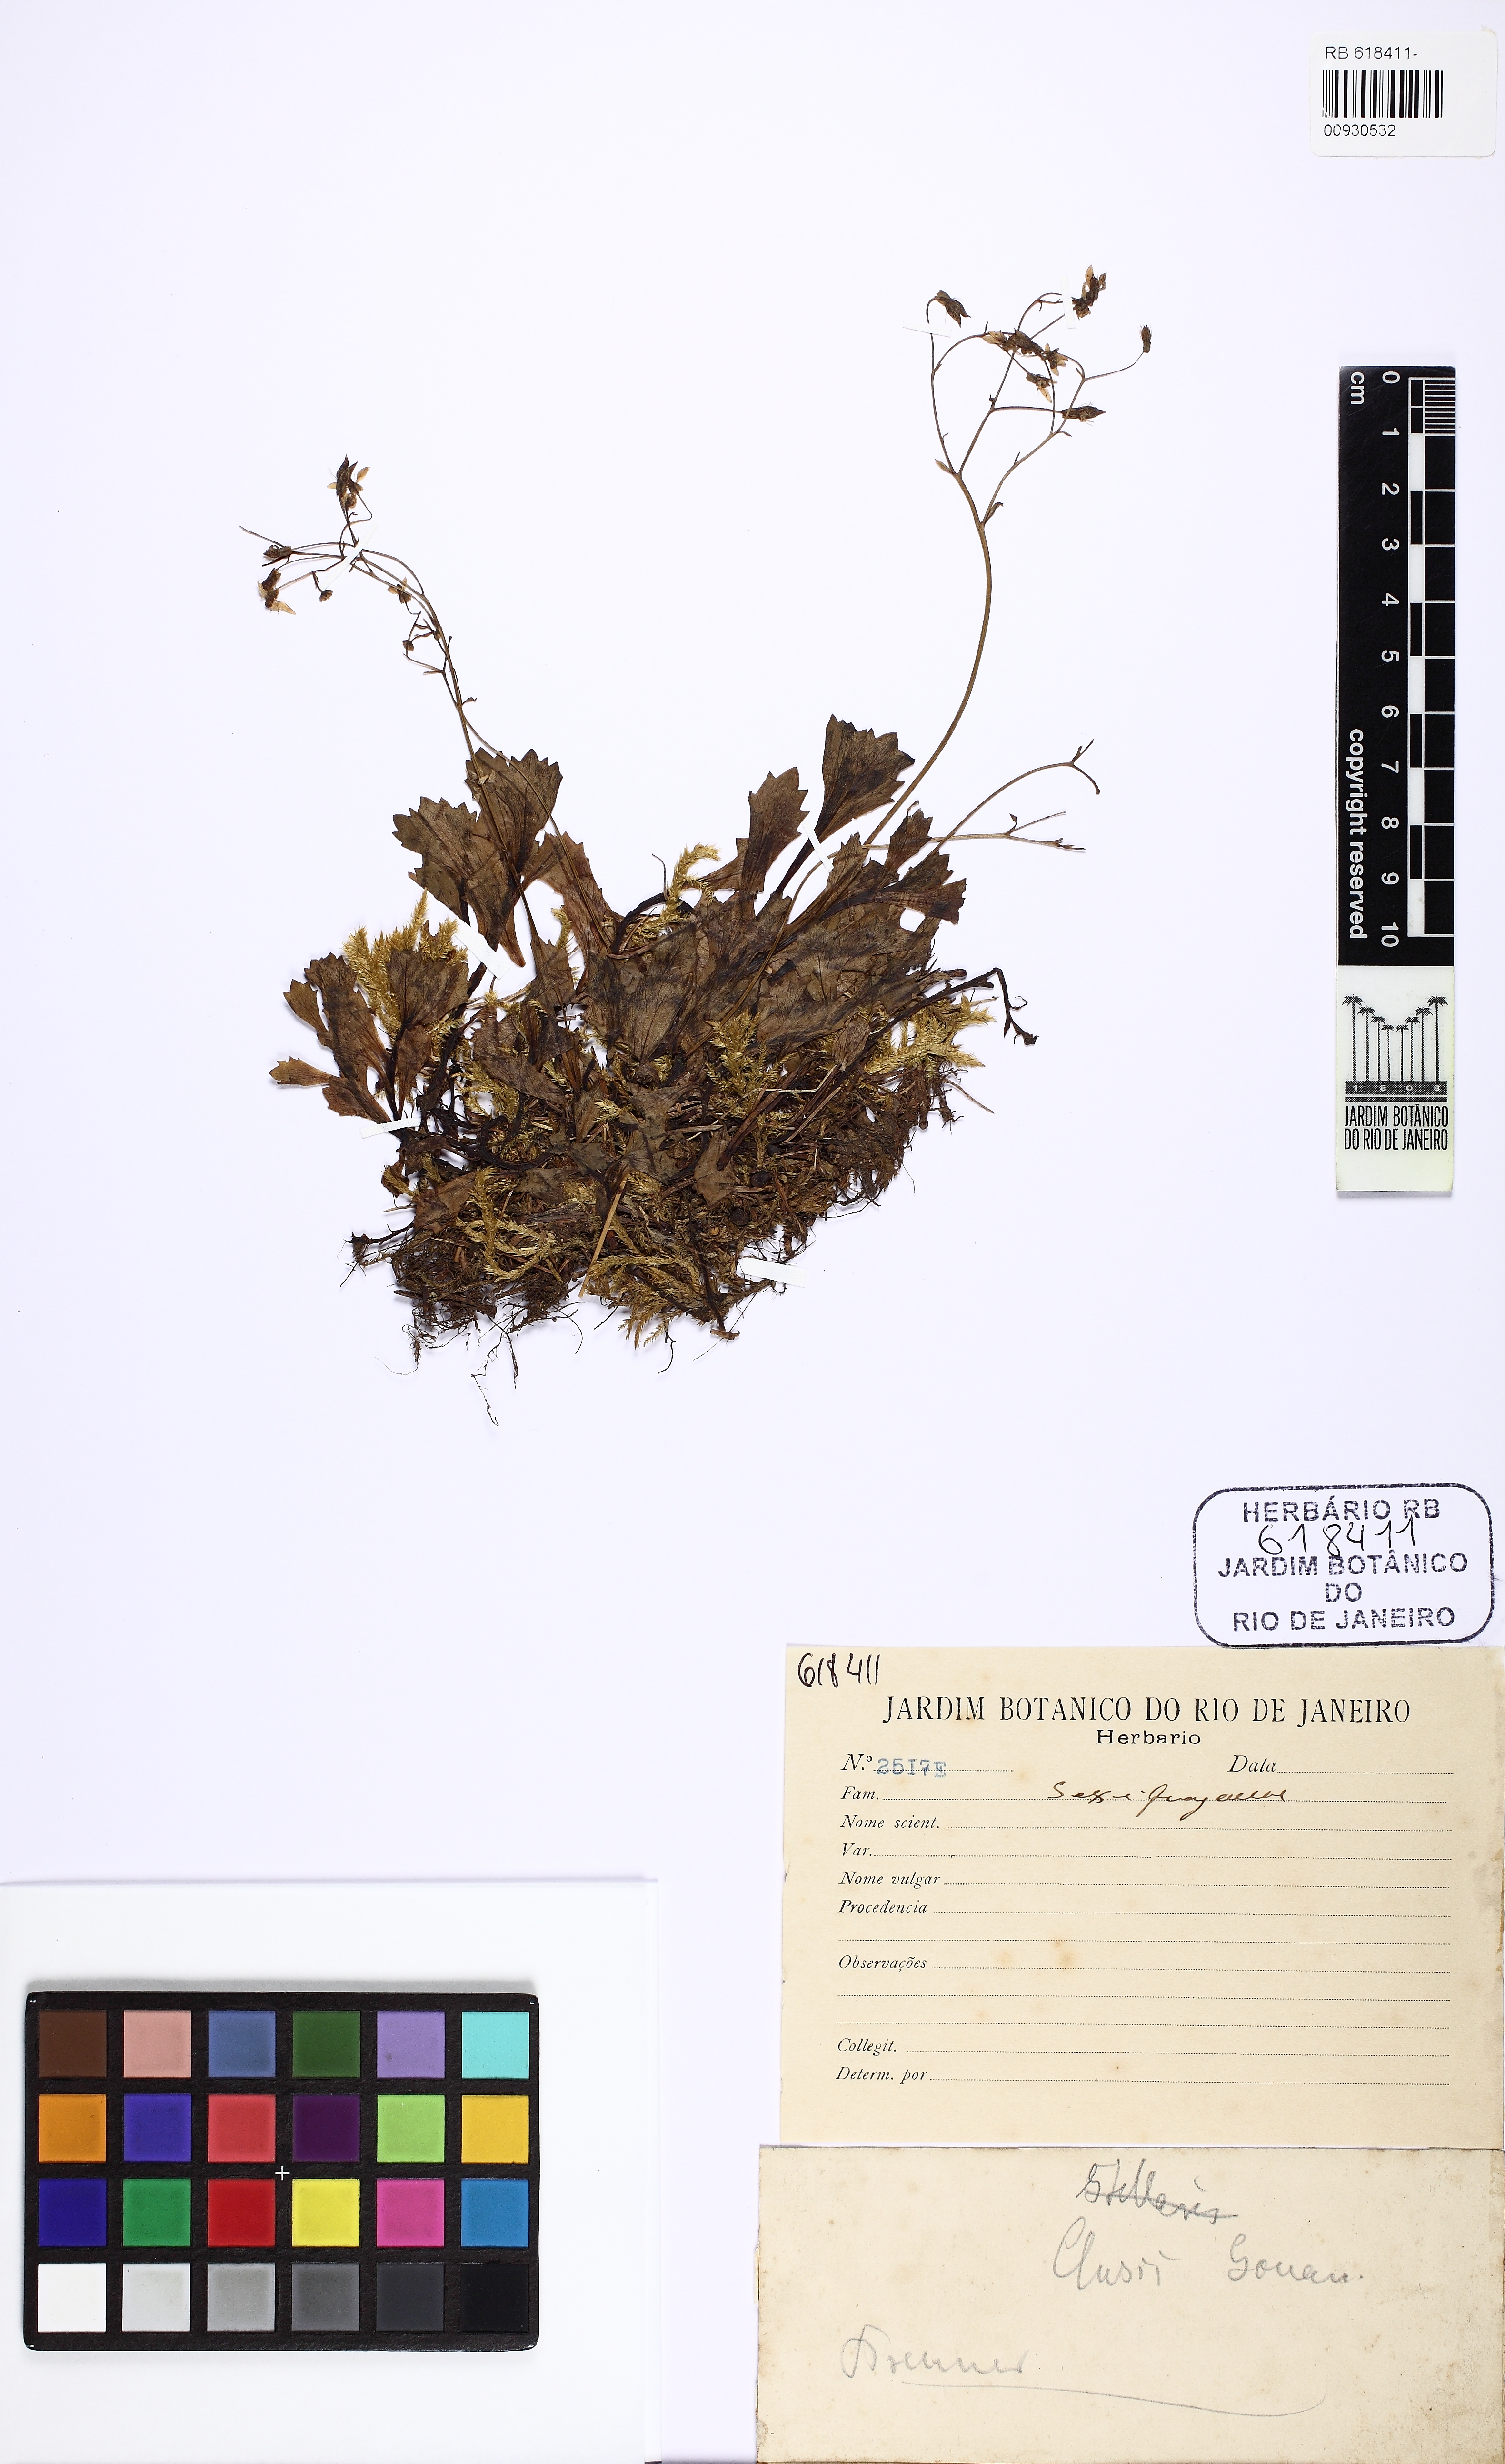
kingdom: Plantae
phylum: Tracheophyta
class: Magnoliopsida
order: Saxifragales
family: Saxifragaceae
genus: Micranthes
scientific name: Micranthes clusii
